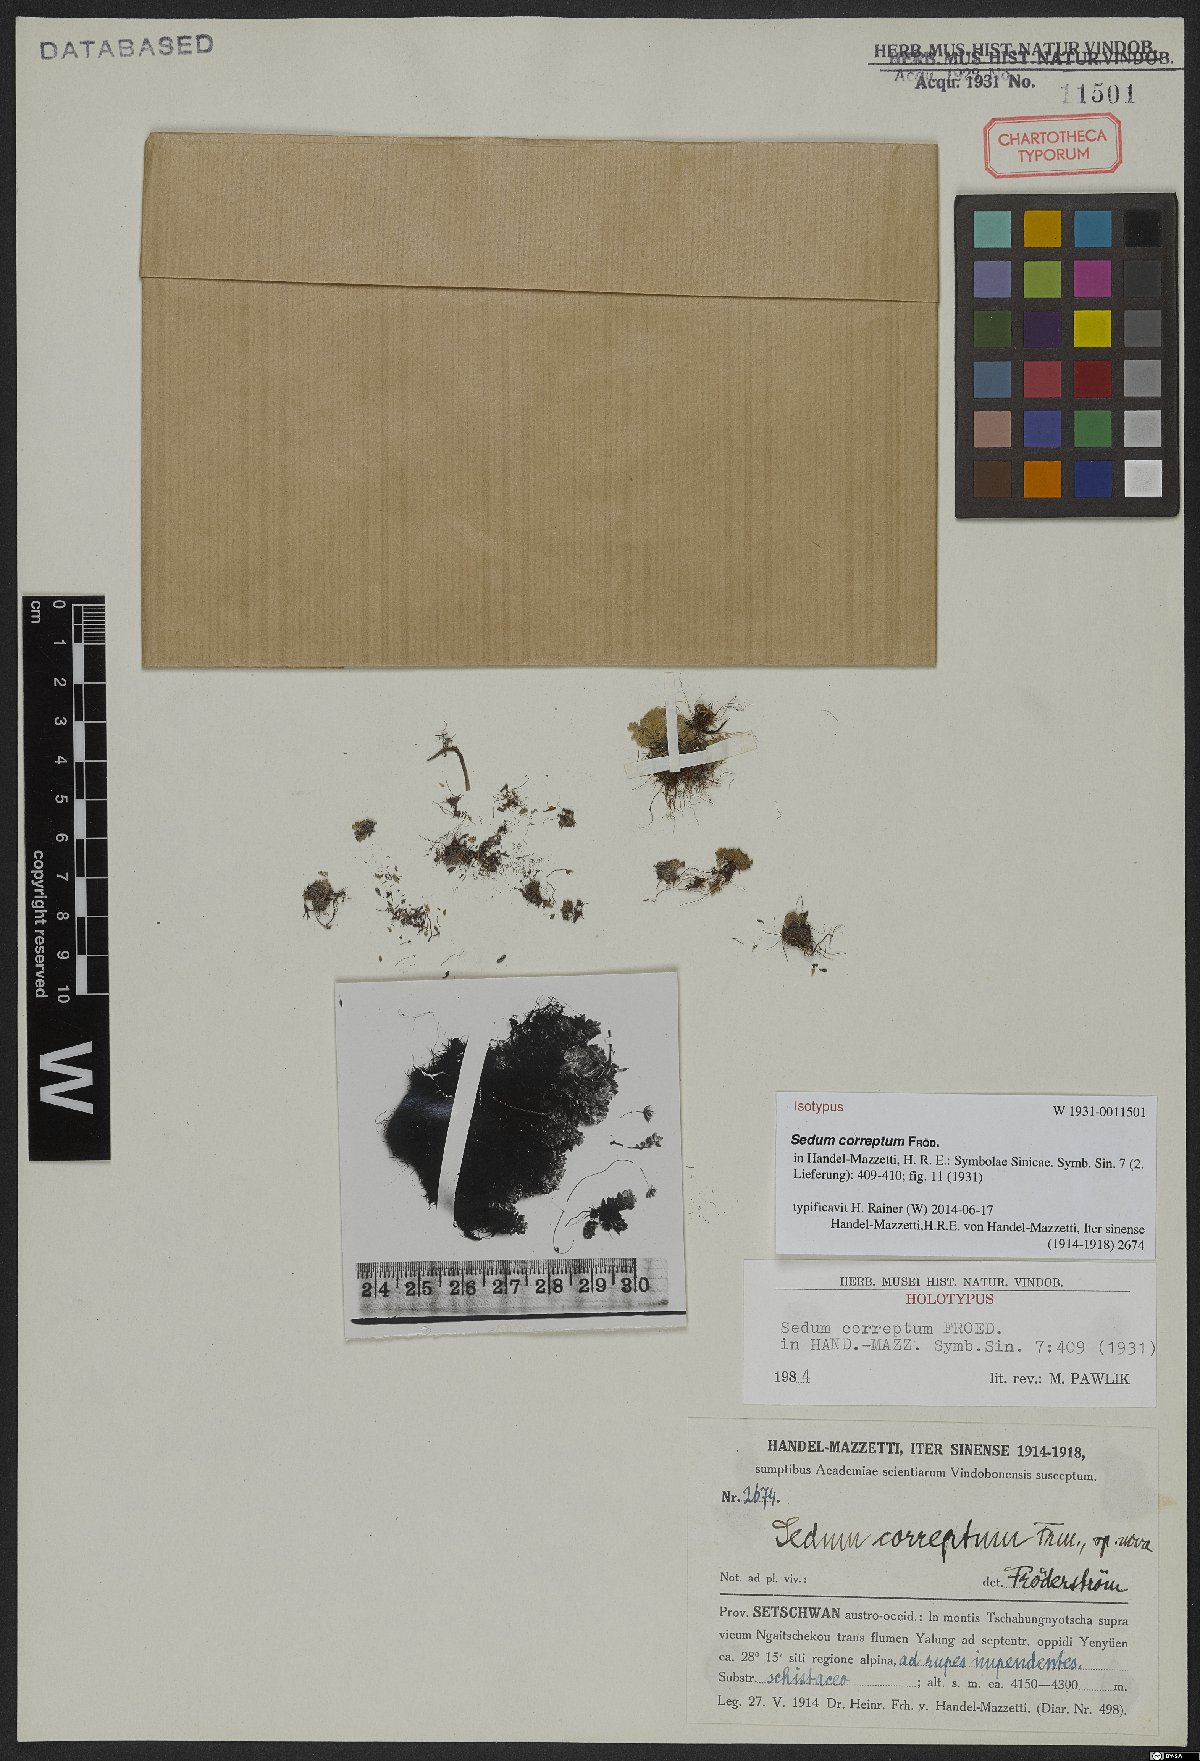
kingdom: Plantae
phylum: Tracheophyta
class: Magnoliopsida
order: Saxifragales
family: Crassulaceae
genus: Sedum
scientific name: Sedum correptum
